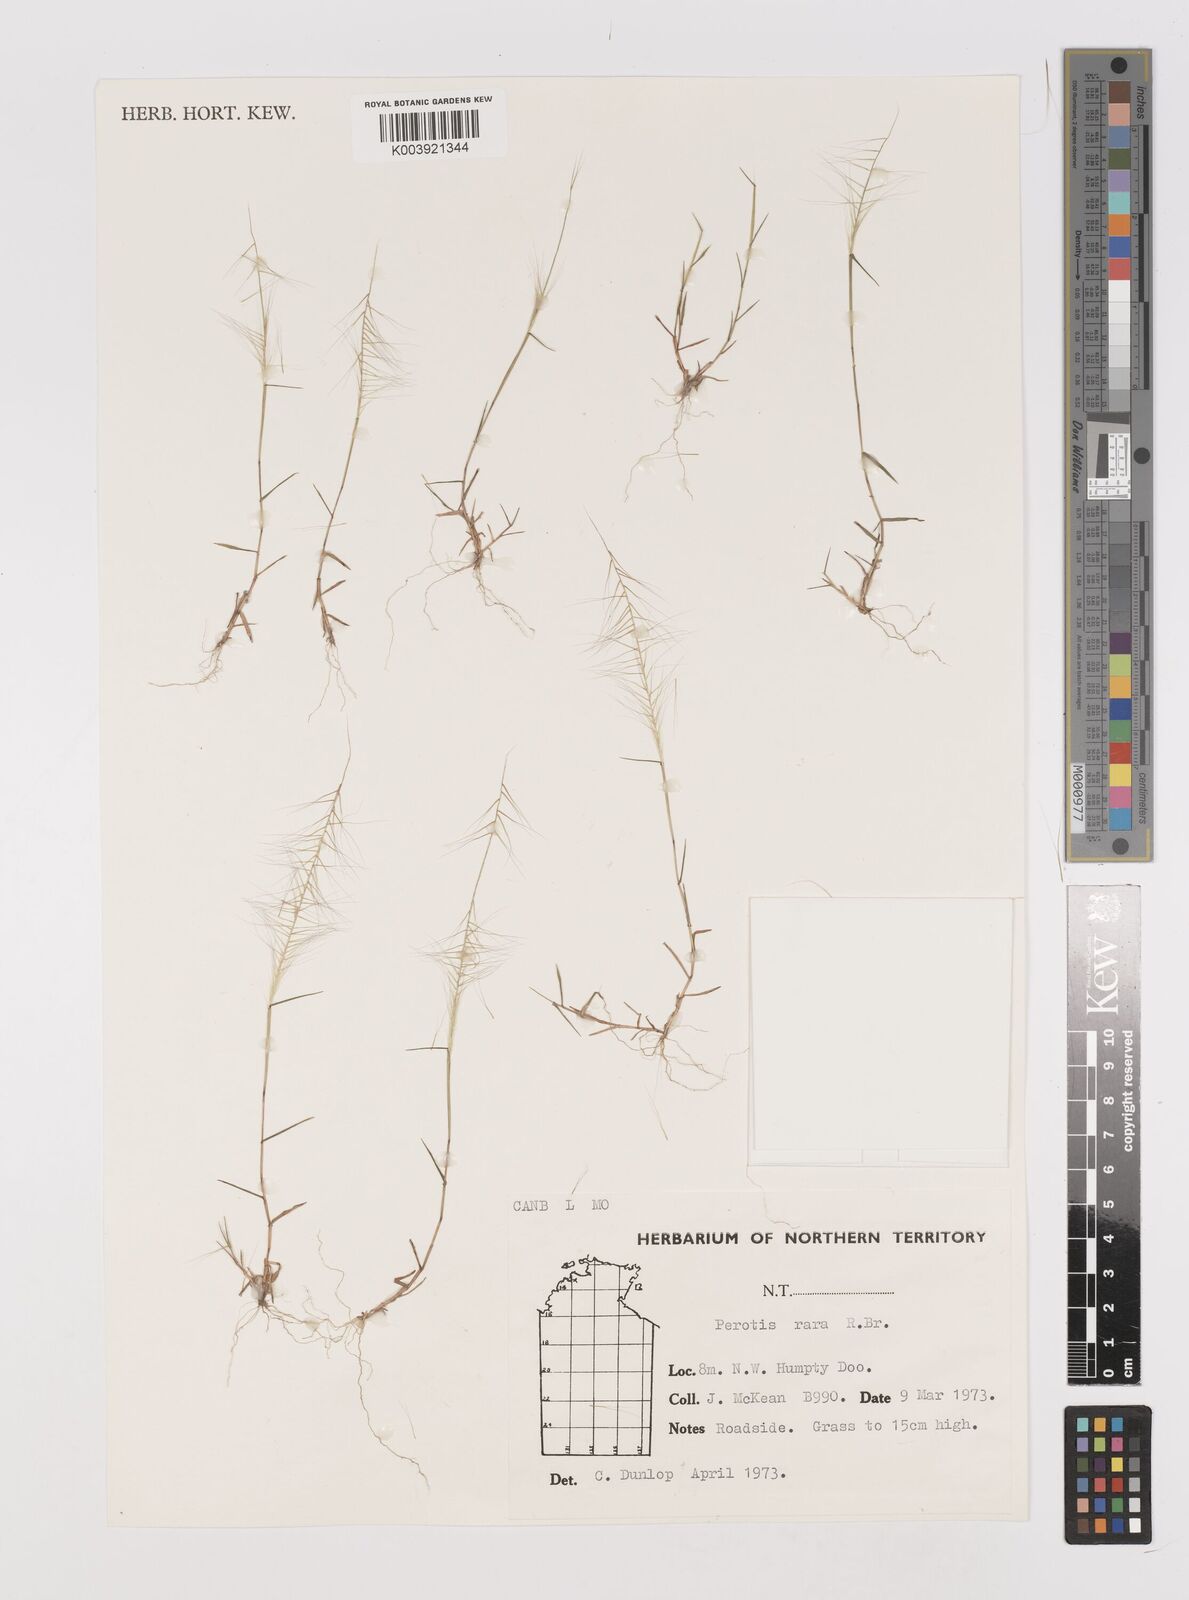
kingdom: Plantae
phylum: Tracheophyta
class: Liliopsida
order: Poales
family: Poaceae
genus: Perotis
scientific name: Perotis rara
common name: Comet grass
